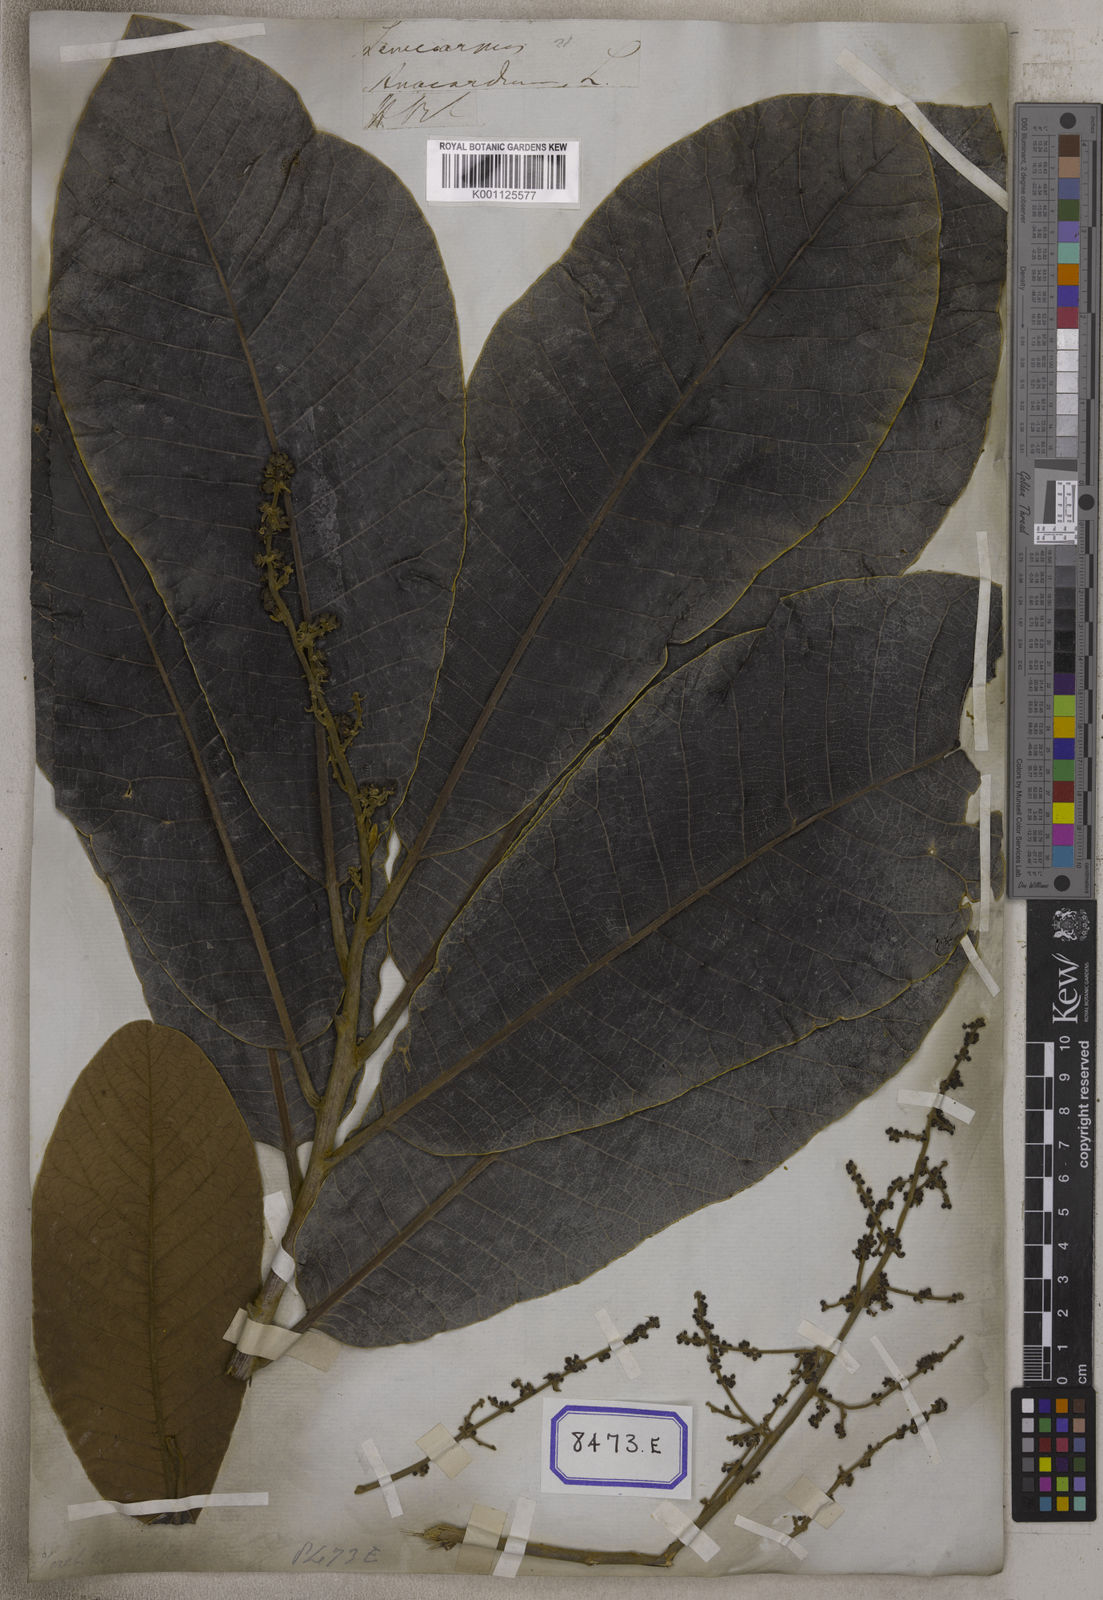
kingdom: Plantae
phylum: Tracheophyta
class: Magnoliopsida
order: Sapindales
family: Anacardiaceae
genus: Semecarpus
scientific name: Semecarpus anacardium
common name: Marking nut-tree
